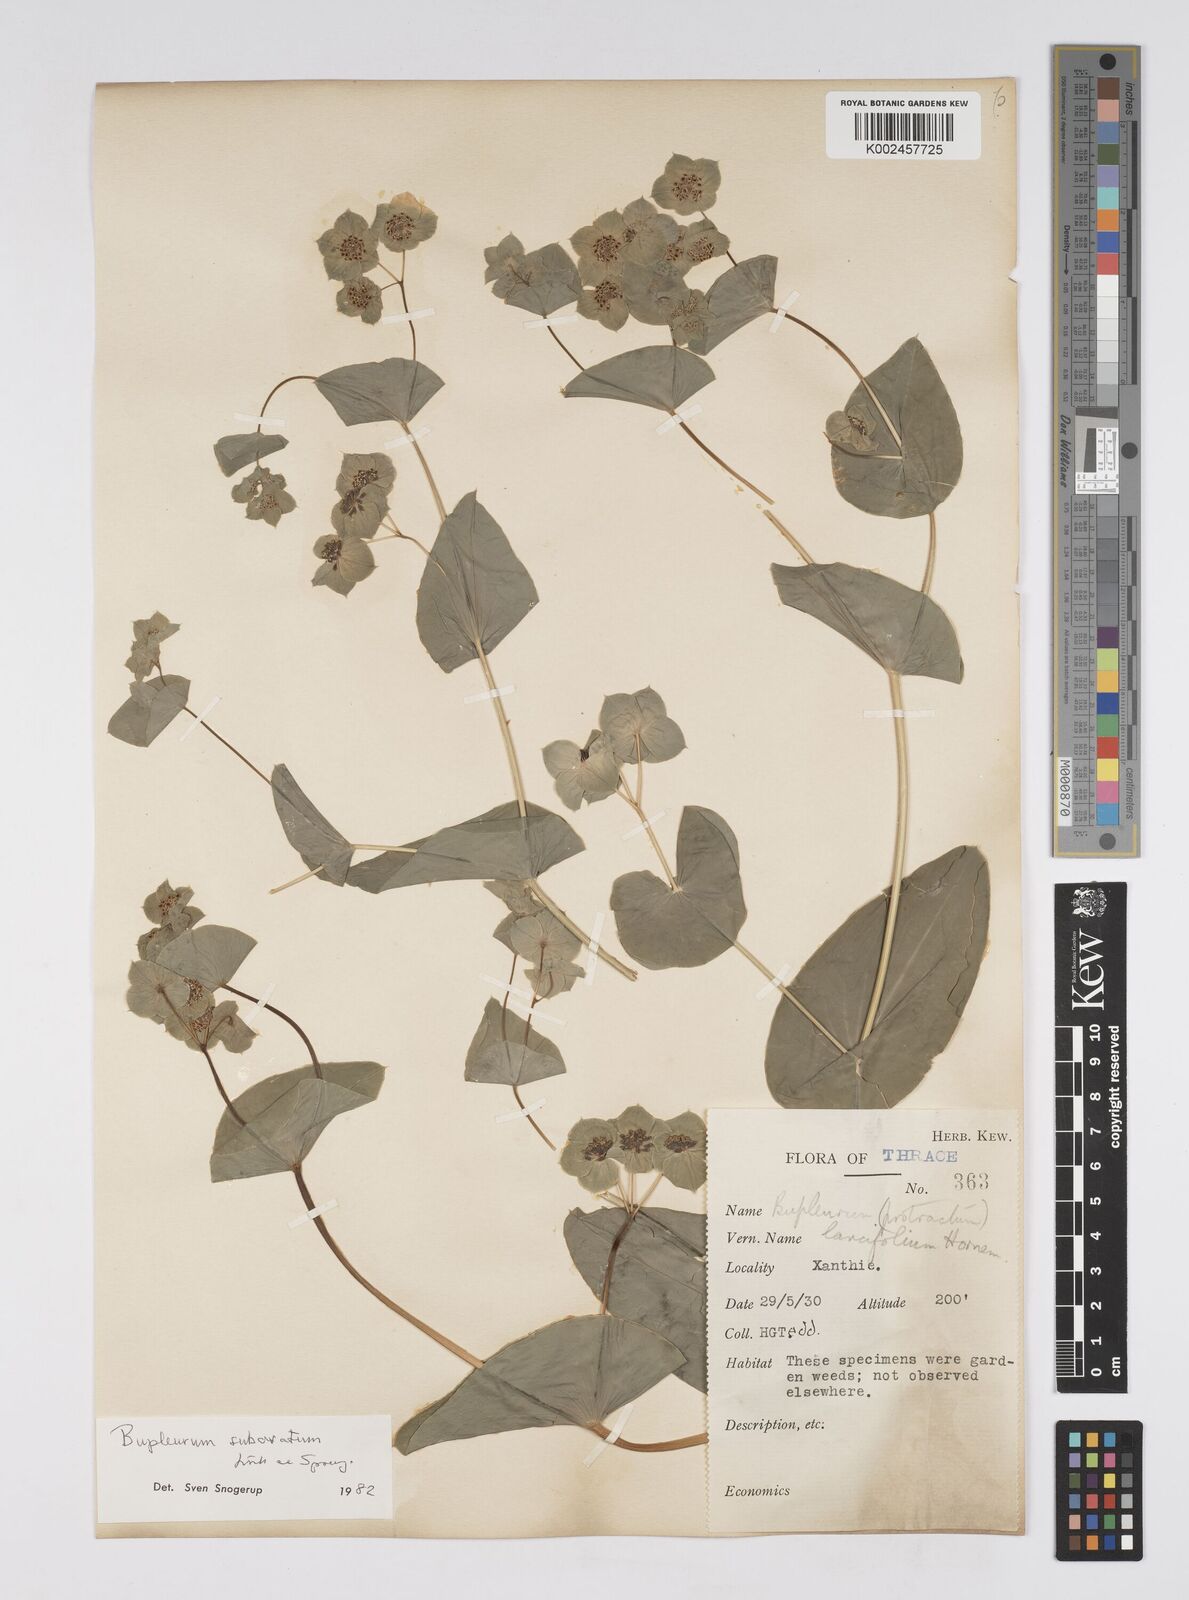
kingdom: Plantae
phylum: Tracheophyta
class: Magnoliopsida
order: Apiales
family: Apiaceae
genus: Bupleurum
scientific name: Bupleurum subovatum
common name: False thorow-wax
